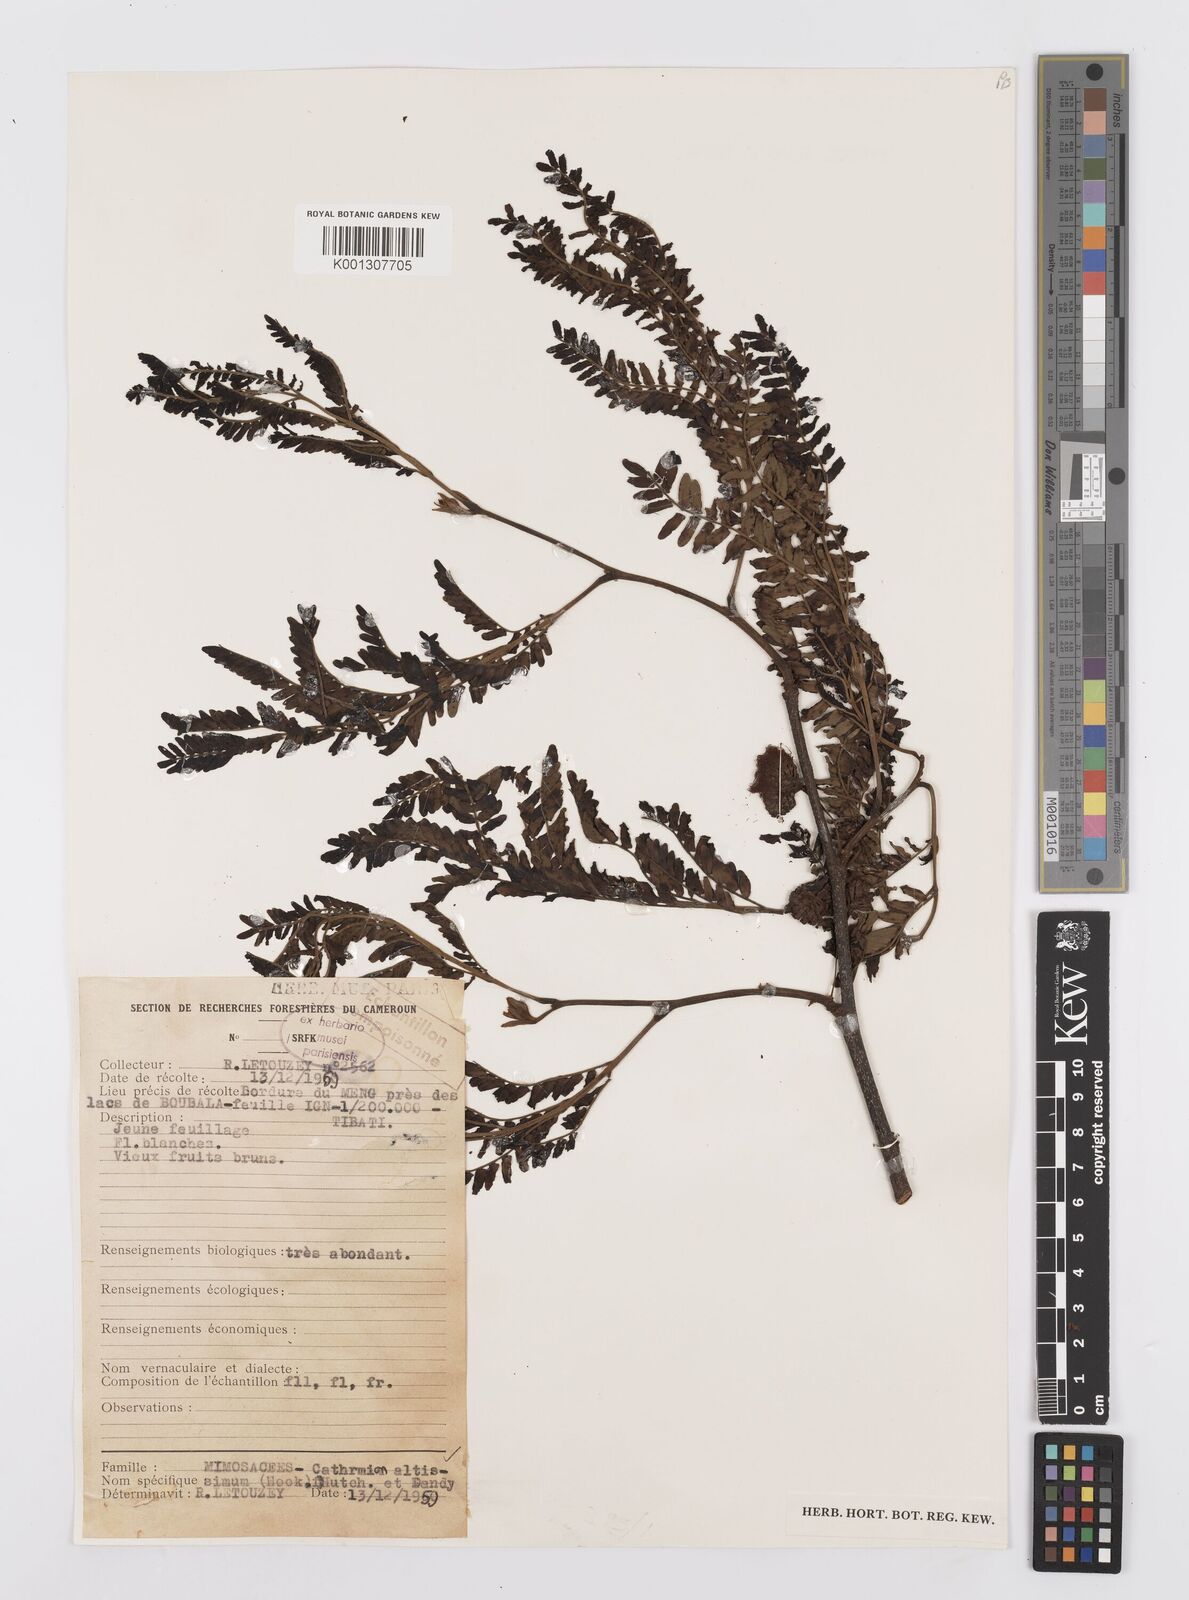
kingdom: Plantae
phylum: Tracheophyta
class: Magnoliopsida
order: Fabales
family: Fabaceae
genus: Albizia
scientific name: Albizia altissima
